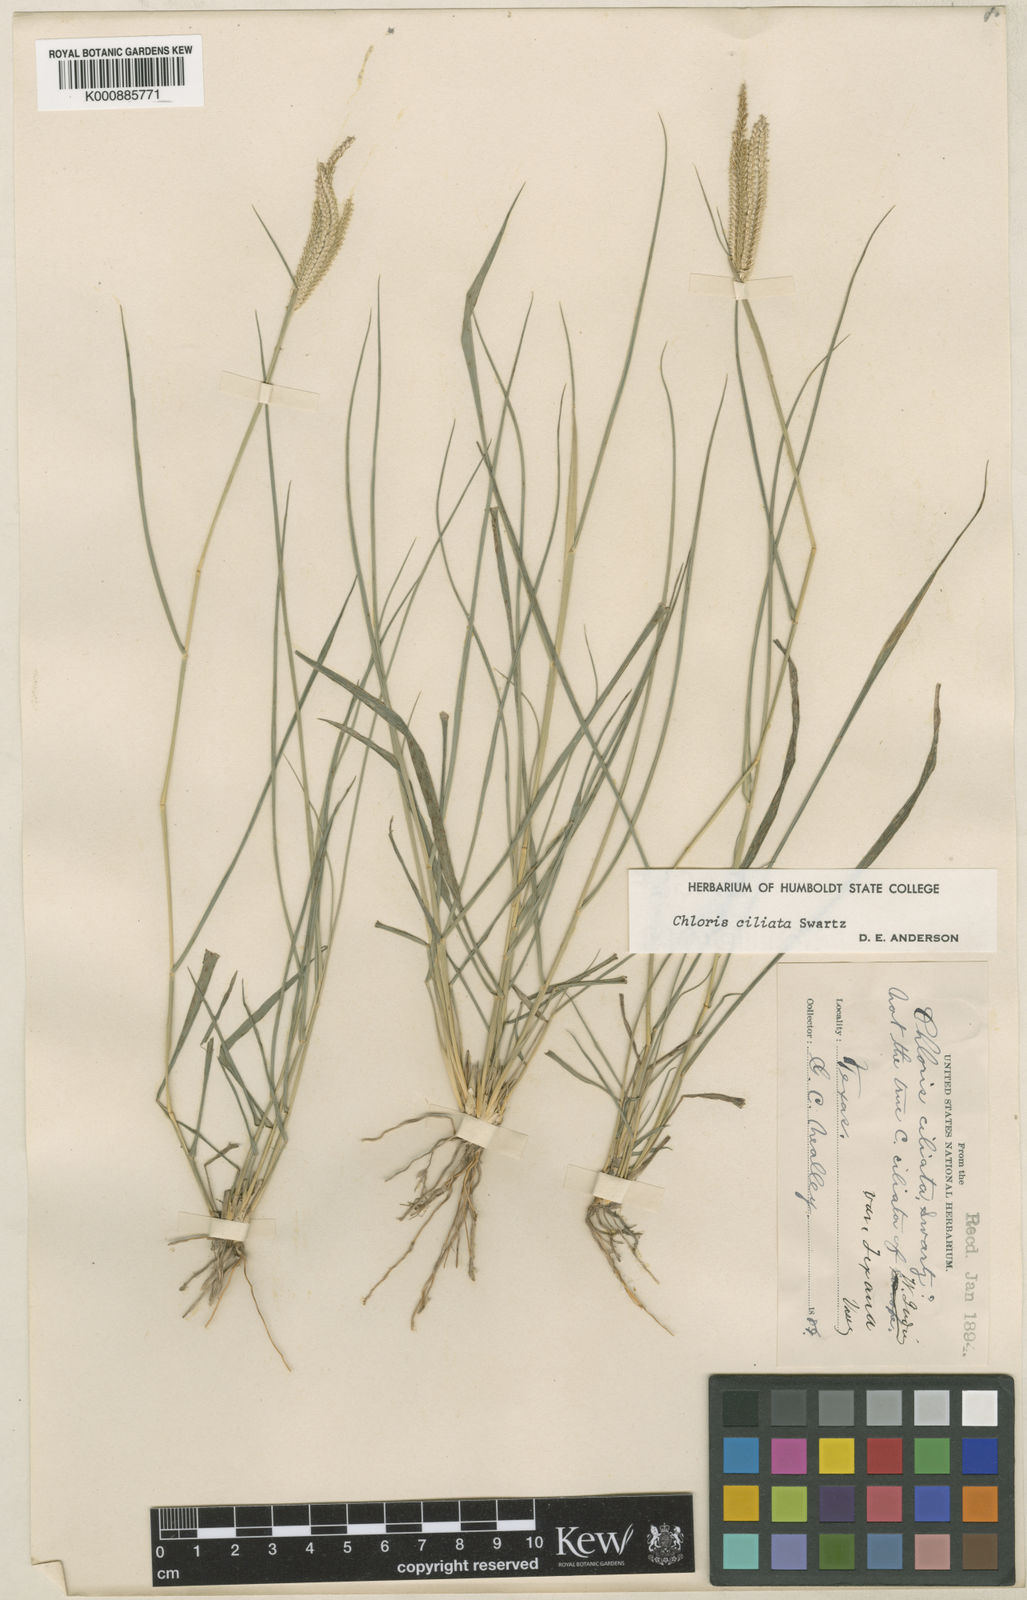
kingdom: Plantae
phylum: Tracheophyta
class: Liliopsida
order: Poales
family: Poaceae
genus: Stapfochloa
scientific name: Stapfochloa ciliata
